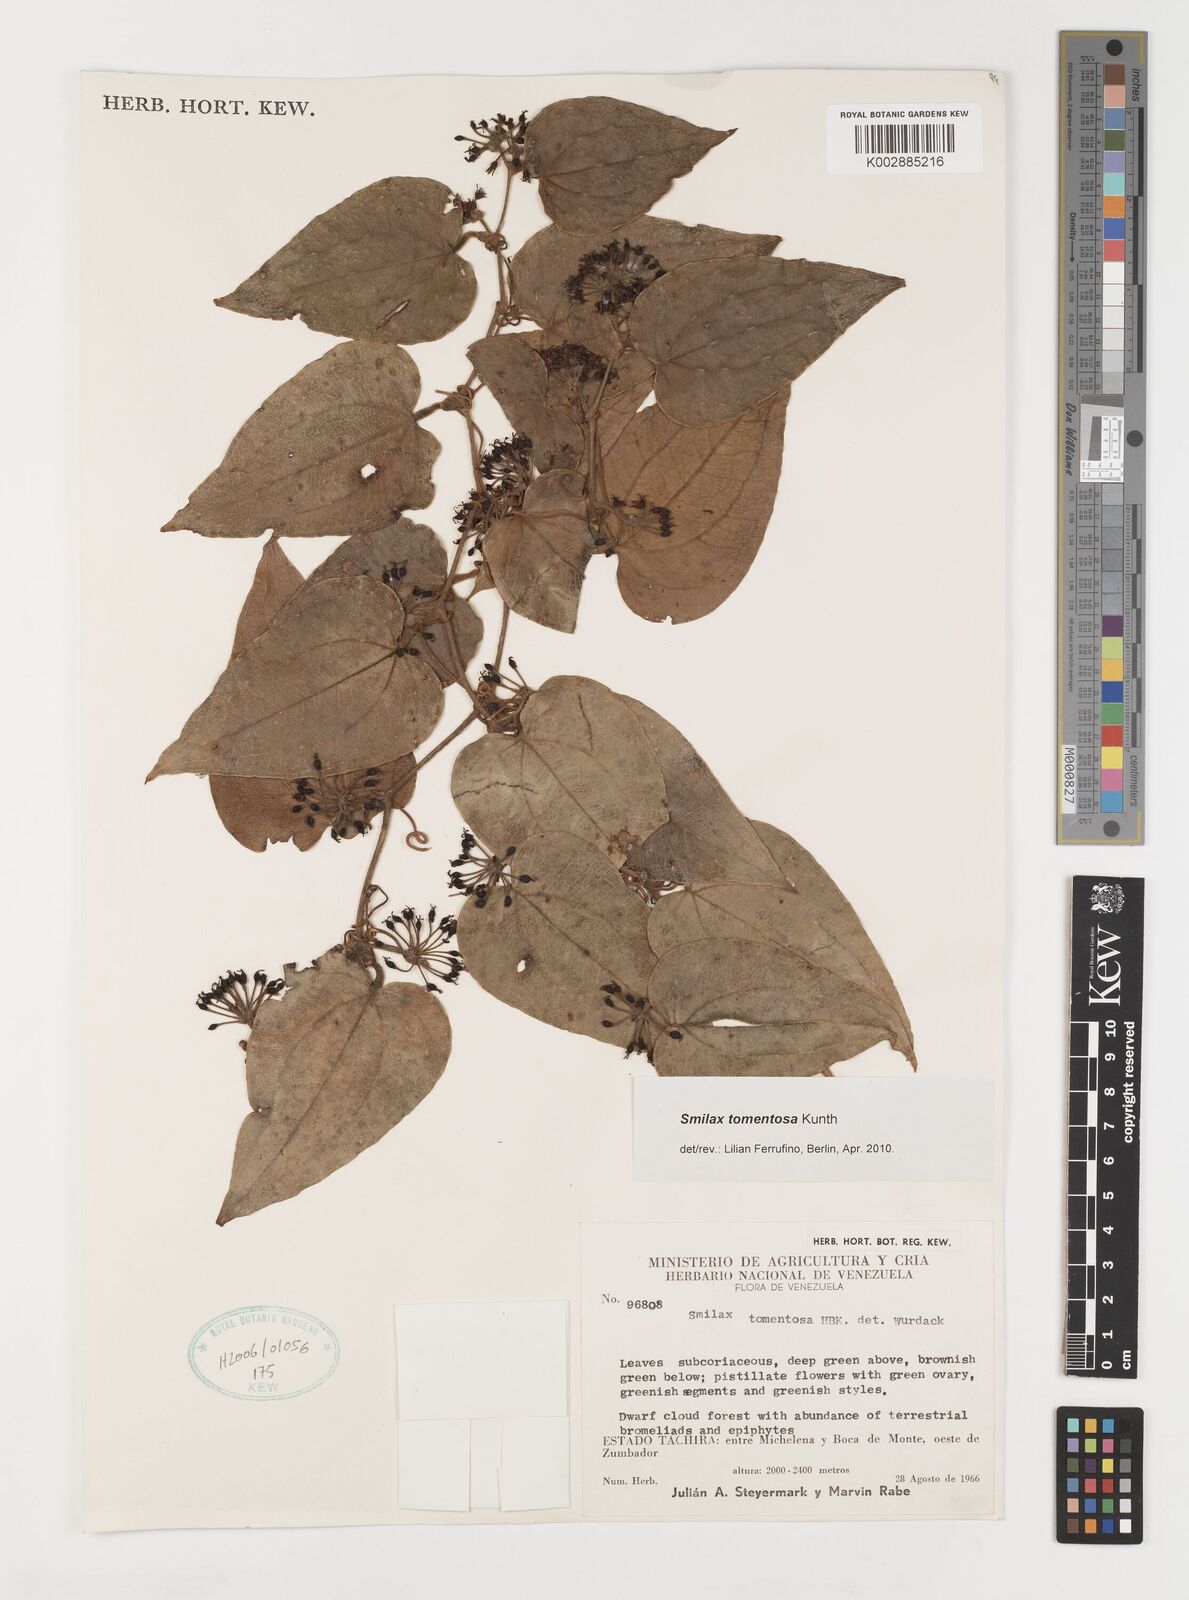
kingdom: Plantae
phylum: Tracheophyta
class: Liliopsida
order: Liliales
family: Smilacaceae
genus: Smilax
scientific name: Smilax tomentosa
